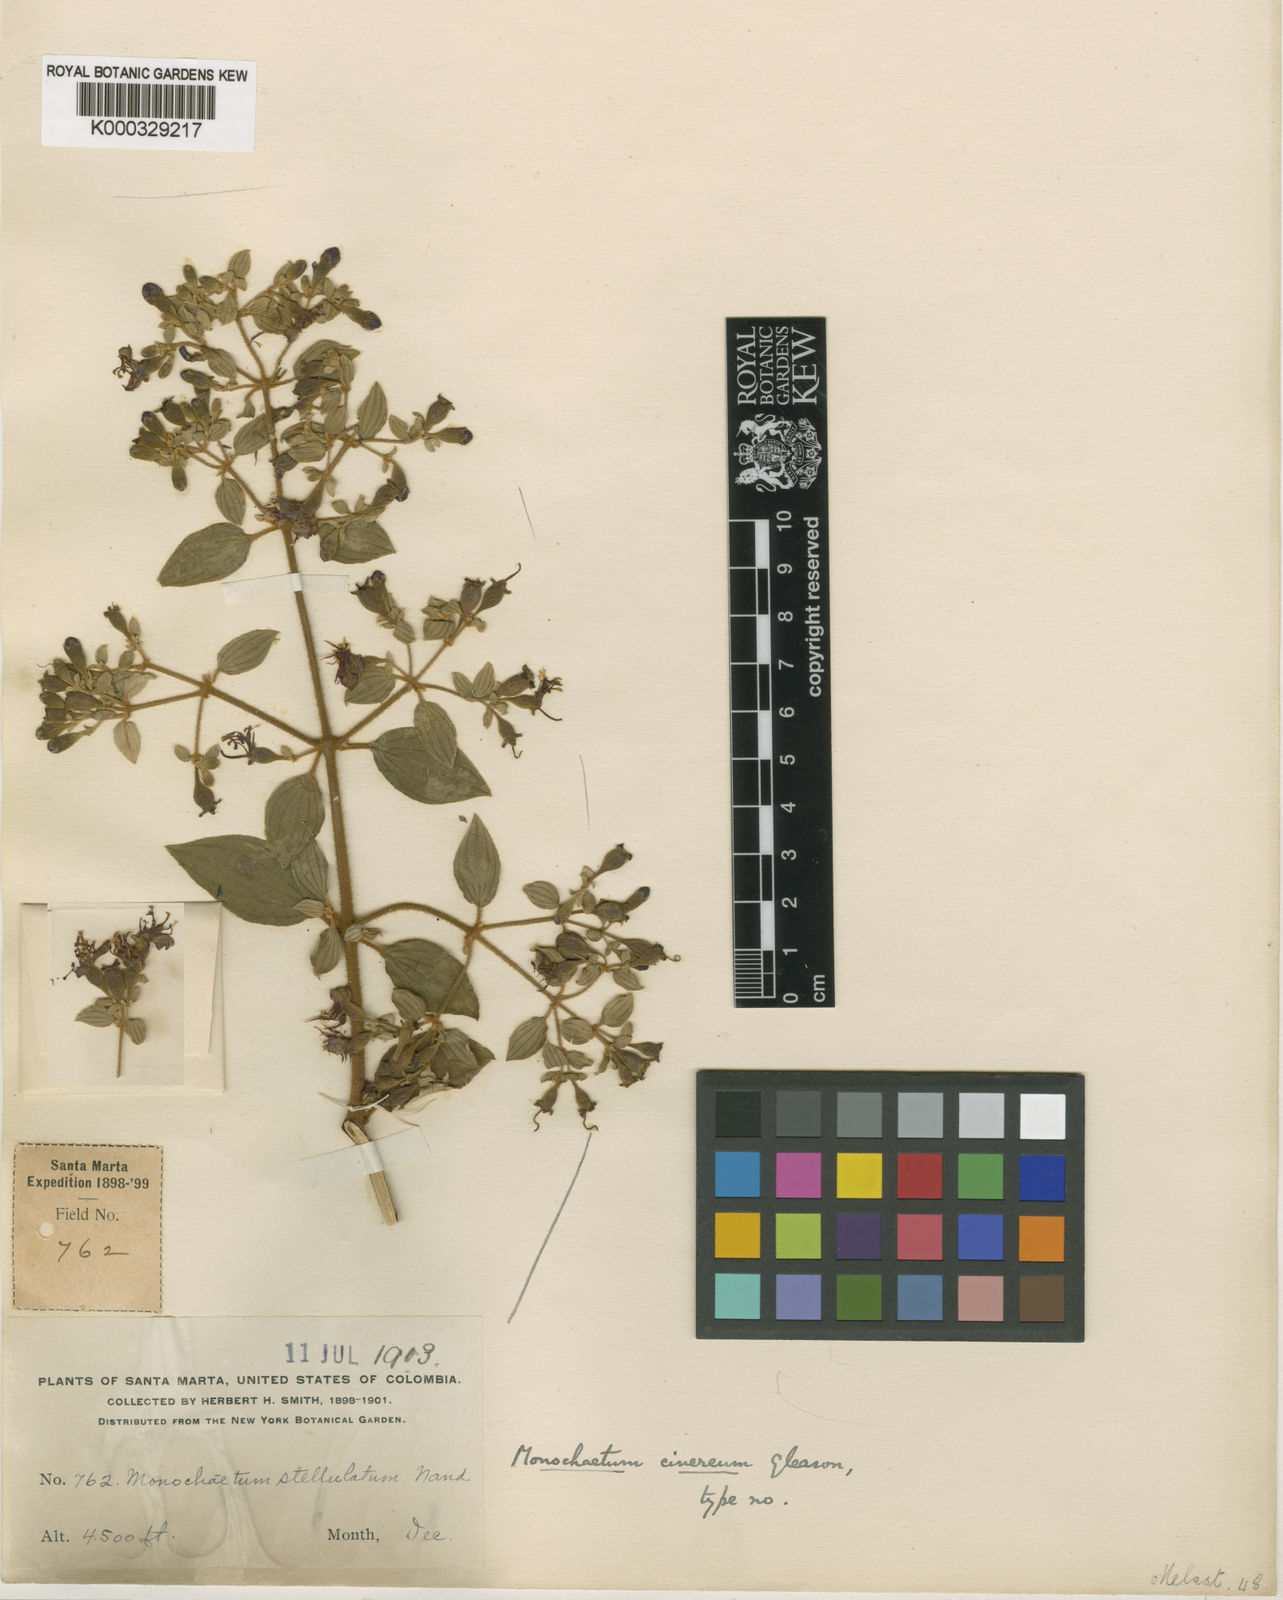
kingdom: Plantae
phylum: Tracheophyta
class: Magnoliopsida
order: Myrtales
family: Melastomataceae
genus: Monochaetum
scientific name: Monochaetum cinereum
